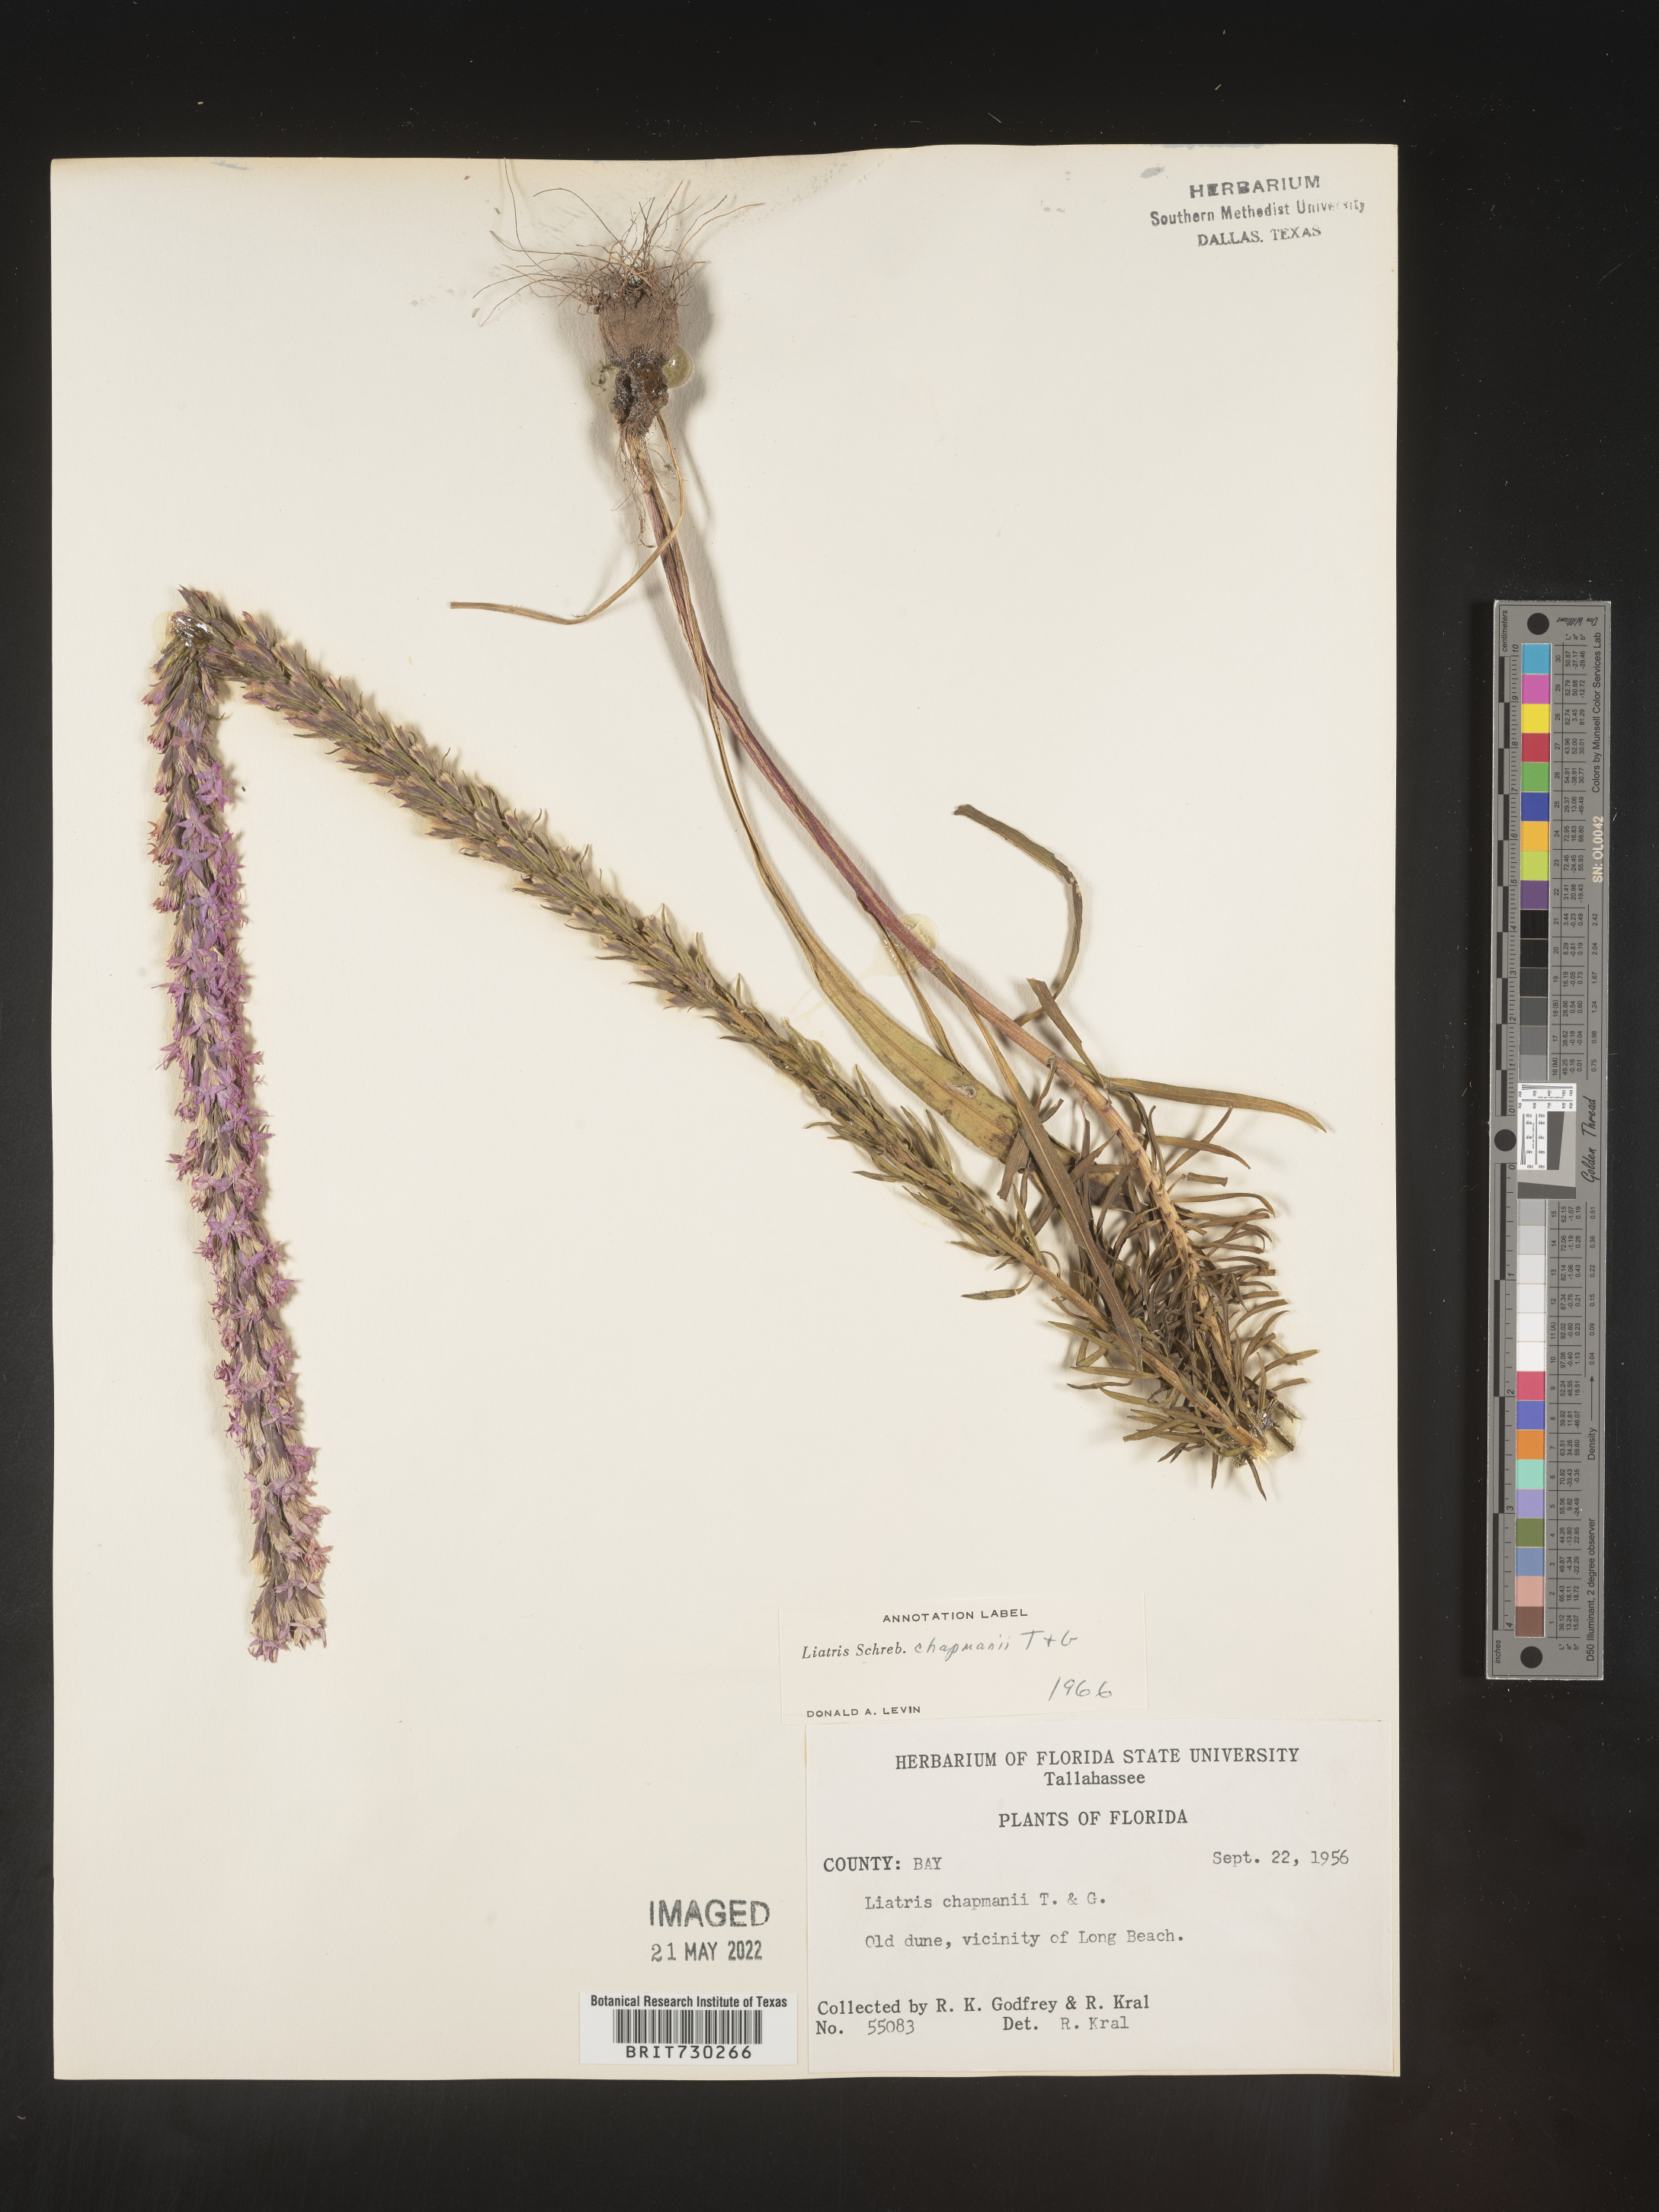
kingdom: Plantae
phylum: Tracheophyta
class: Magnoliopsida
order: Asterales
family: Asteraceae
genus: Liatris
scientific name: Liatris chapmanii
